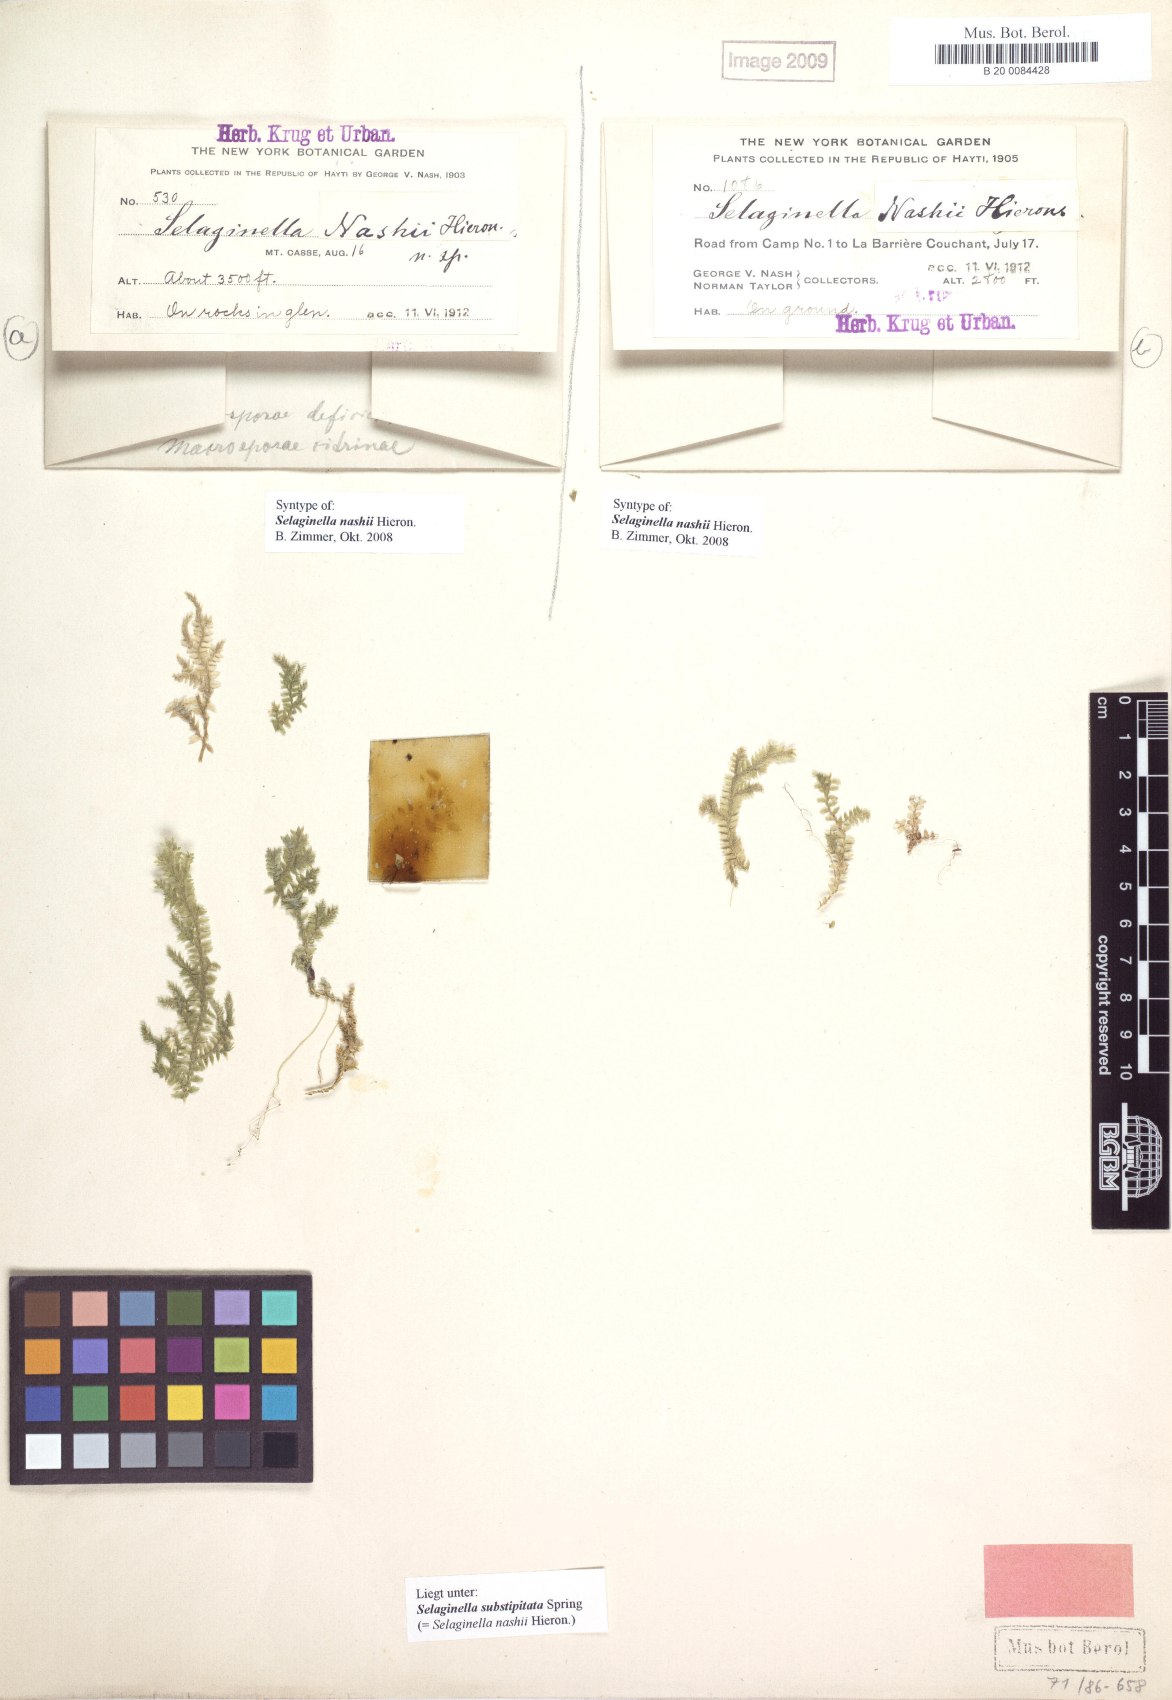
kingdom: Plantae
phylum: Tracheophyta
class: Lycopodiopsida
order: Selaginellales
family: Selaginellaceae
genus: Selaginella
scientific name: Selaginella substipitata
